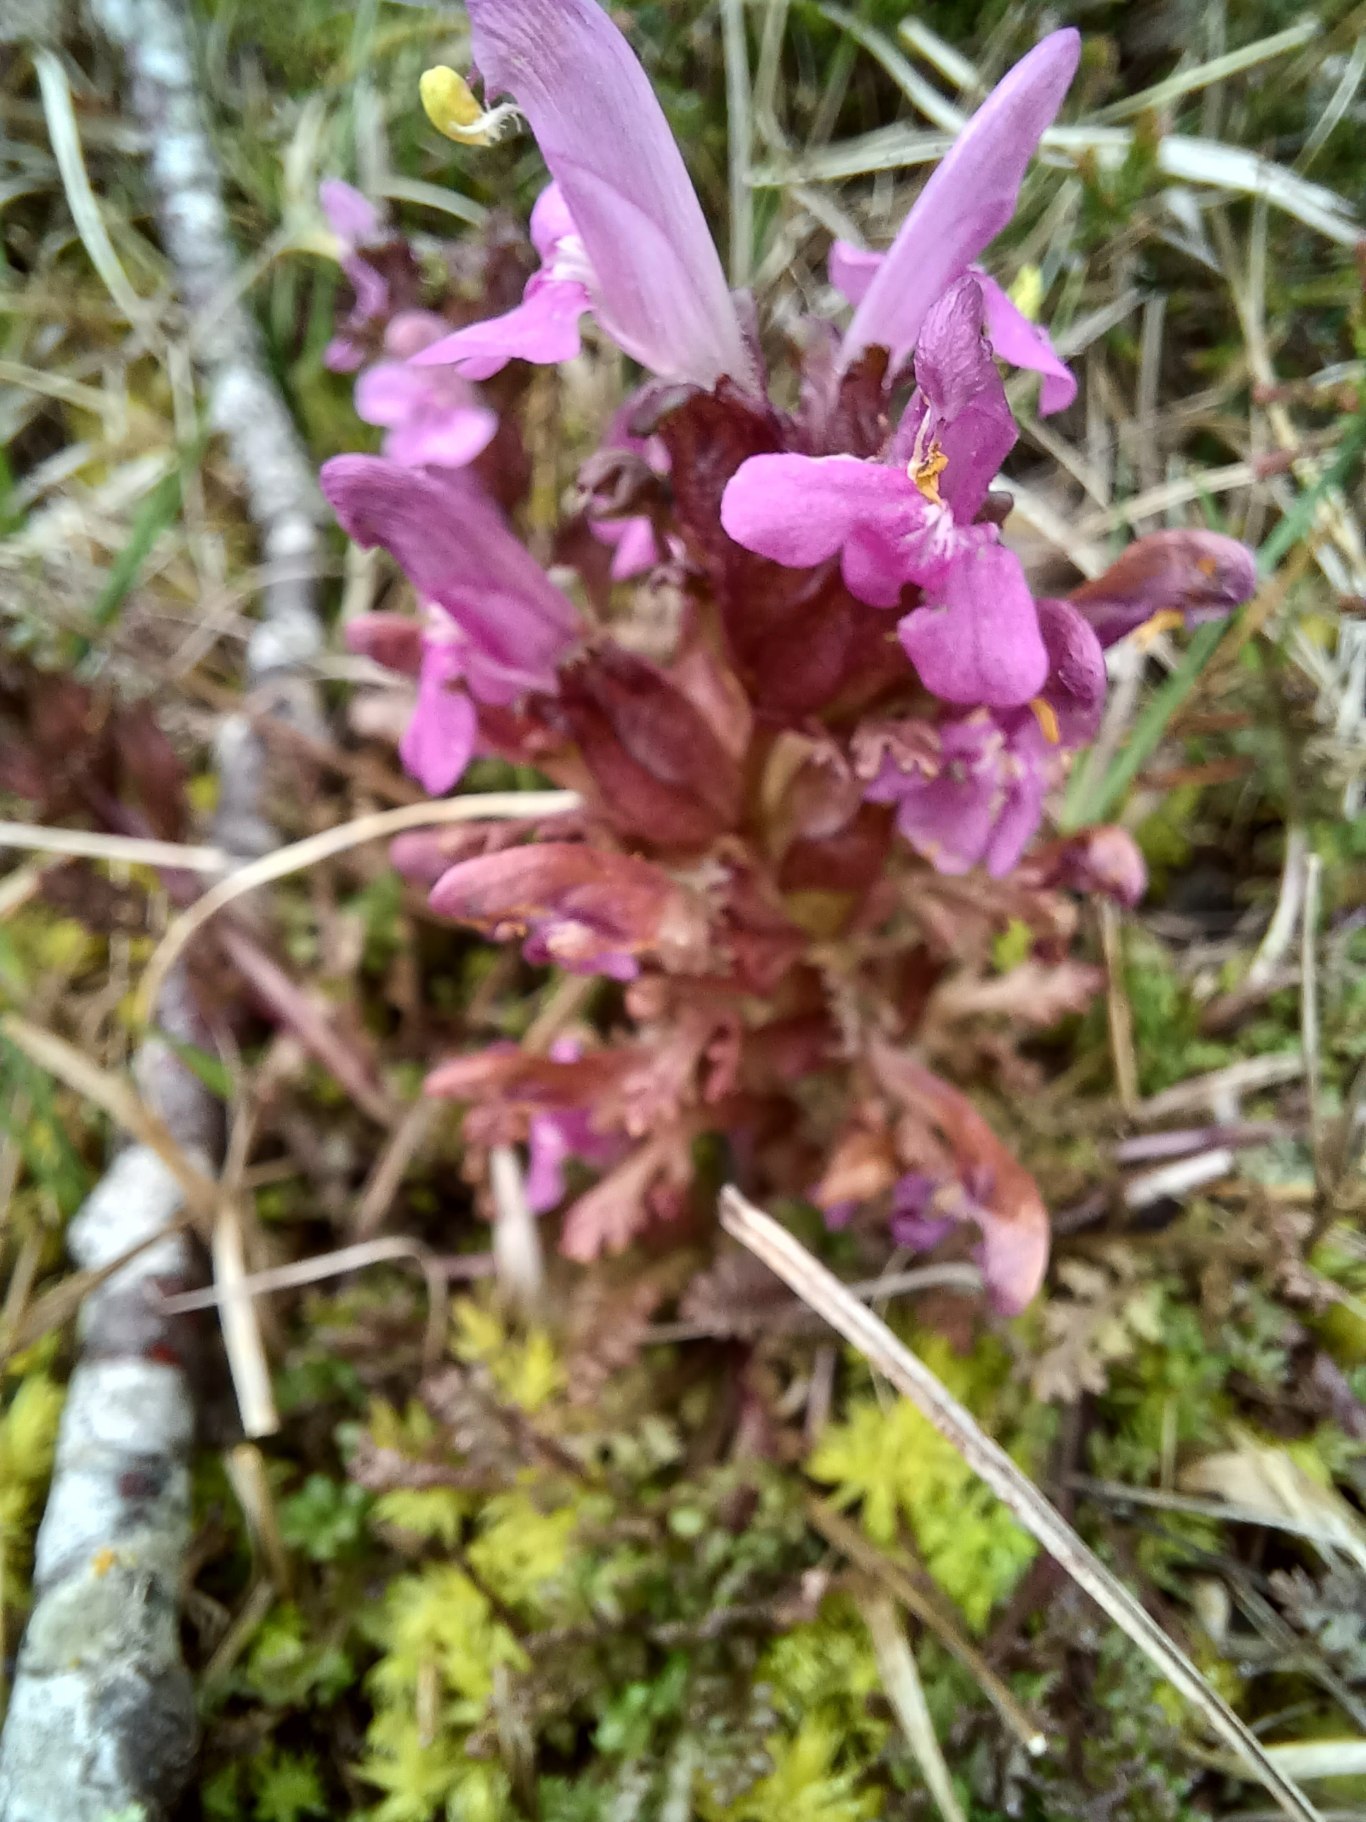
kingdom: Plantae
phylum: Tracheophyta
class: Magnoliopsida
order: Lamiales
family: Orobanchaceae
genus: Pedicularis
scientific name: Pedicularis sylvatica
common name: Mose-troldurt
